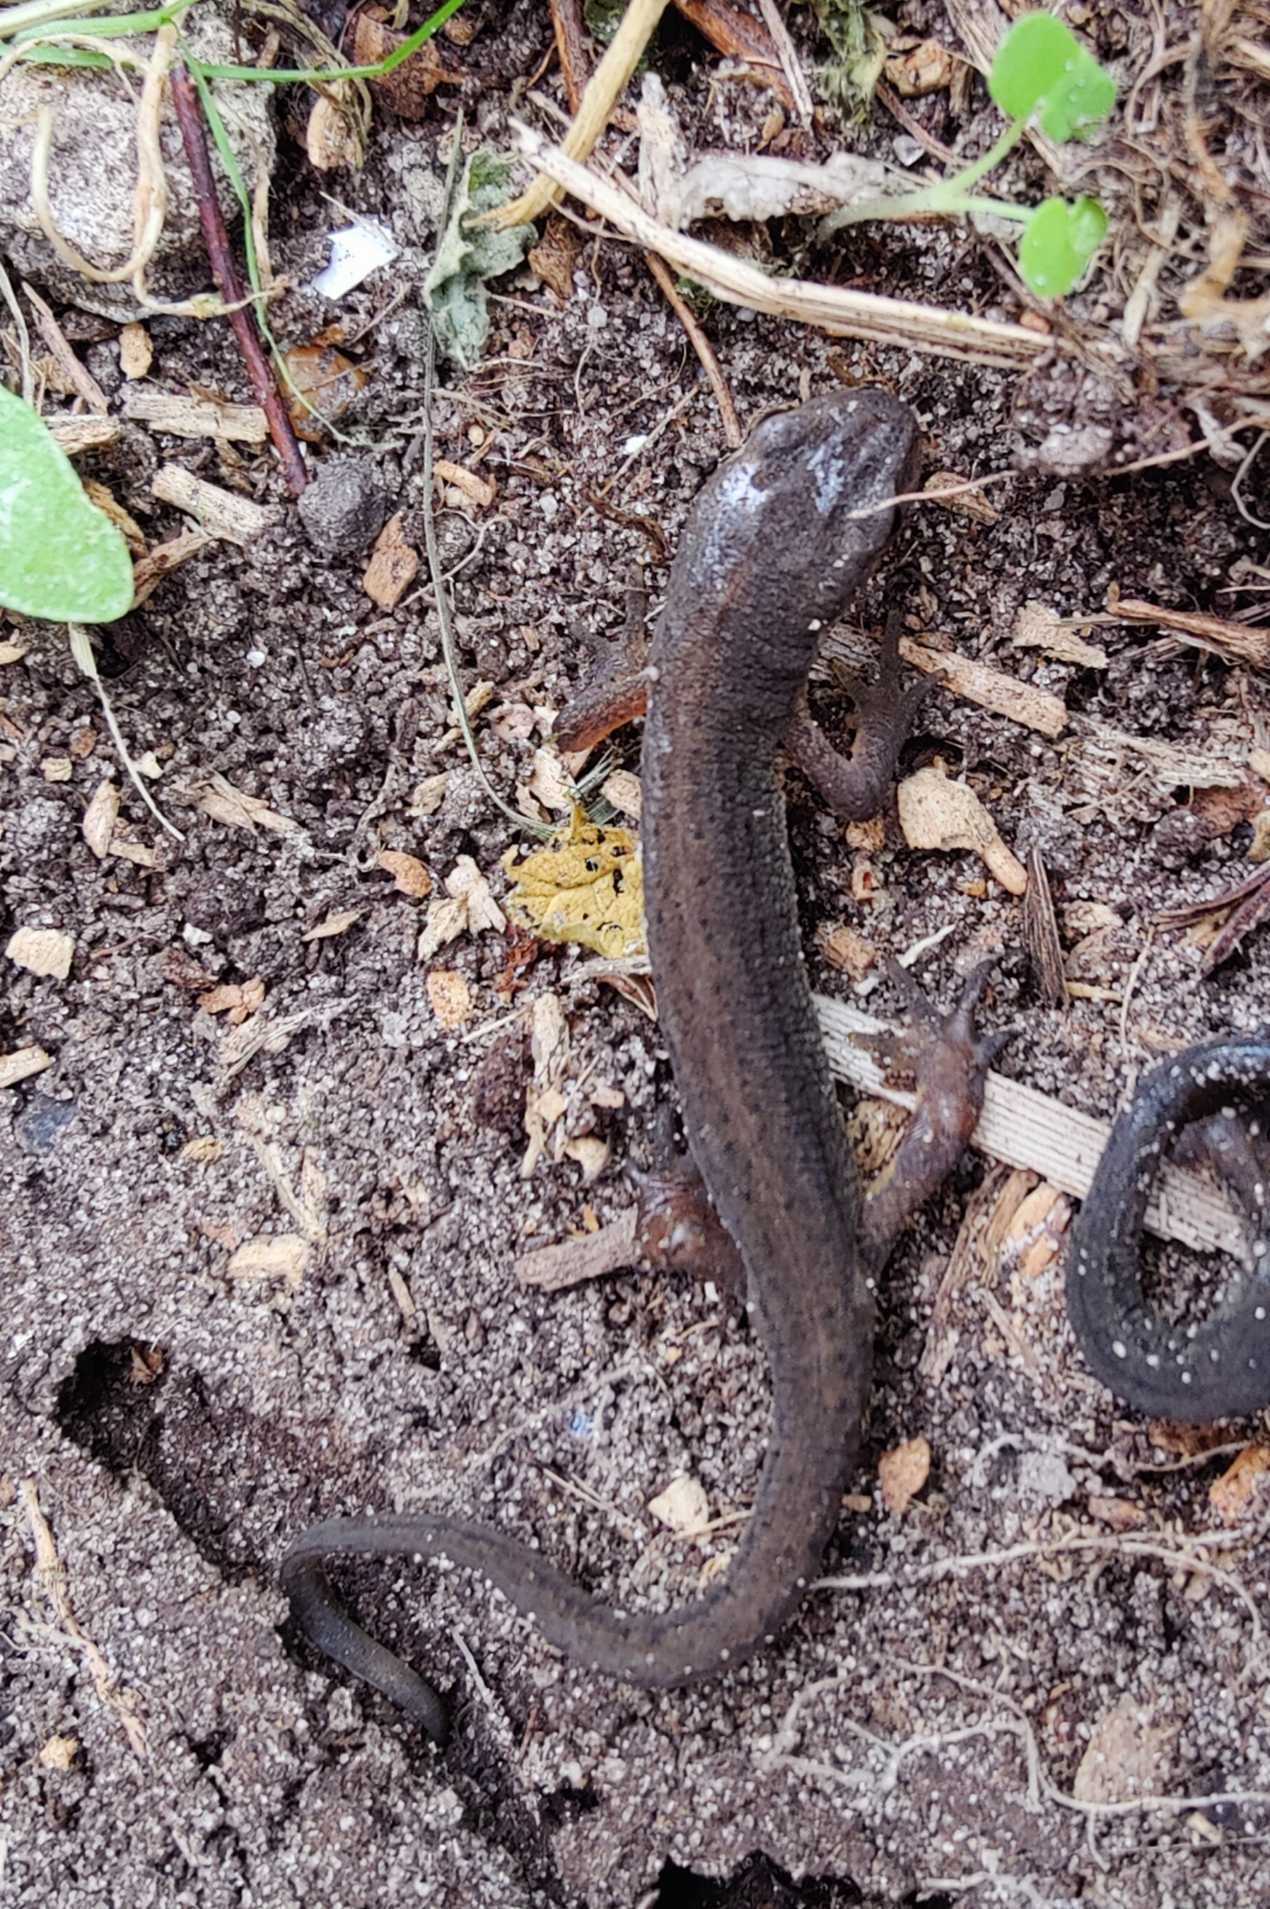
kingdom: Animalia
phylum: Chordata
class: Amphibia
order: Caudata
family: Salamandridae
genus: Lissotriton
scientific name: Lissotriton vulgaris
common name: Lille vandsalamander
